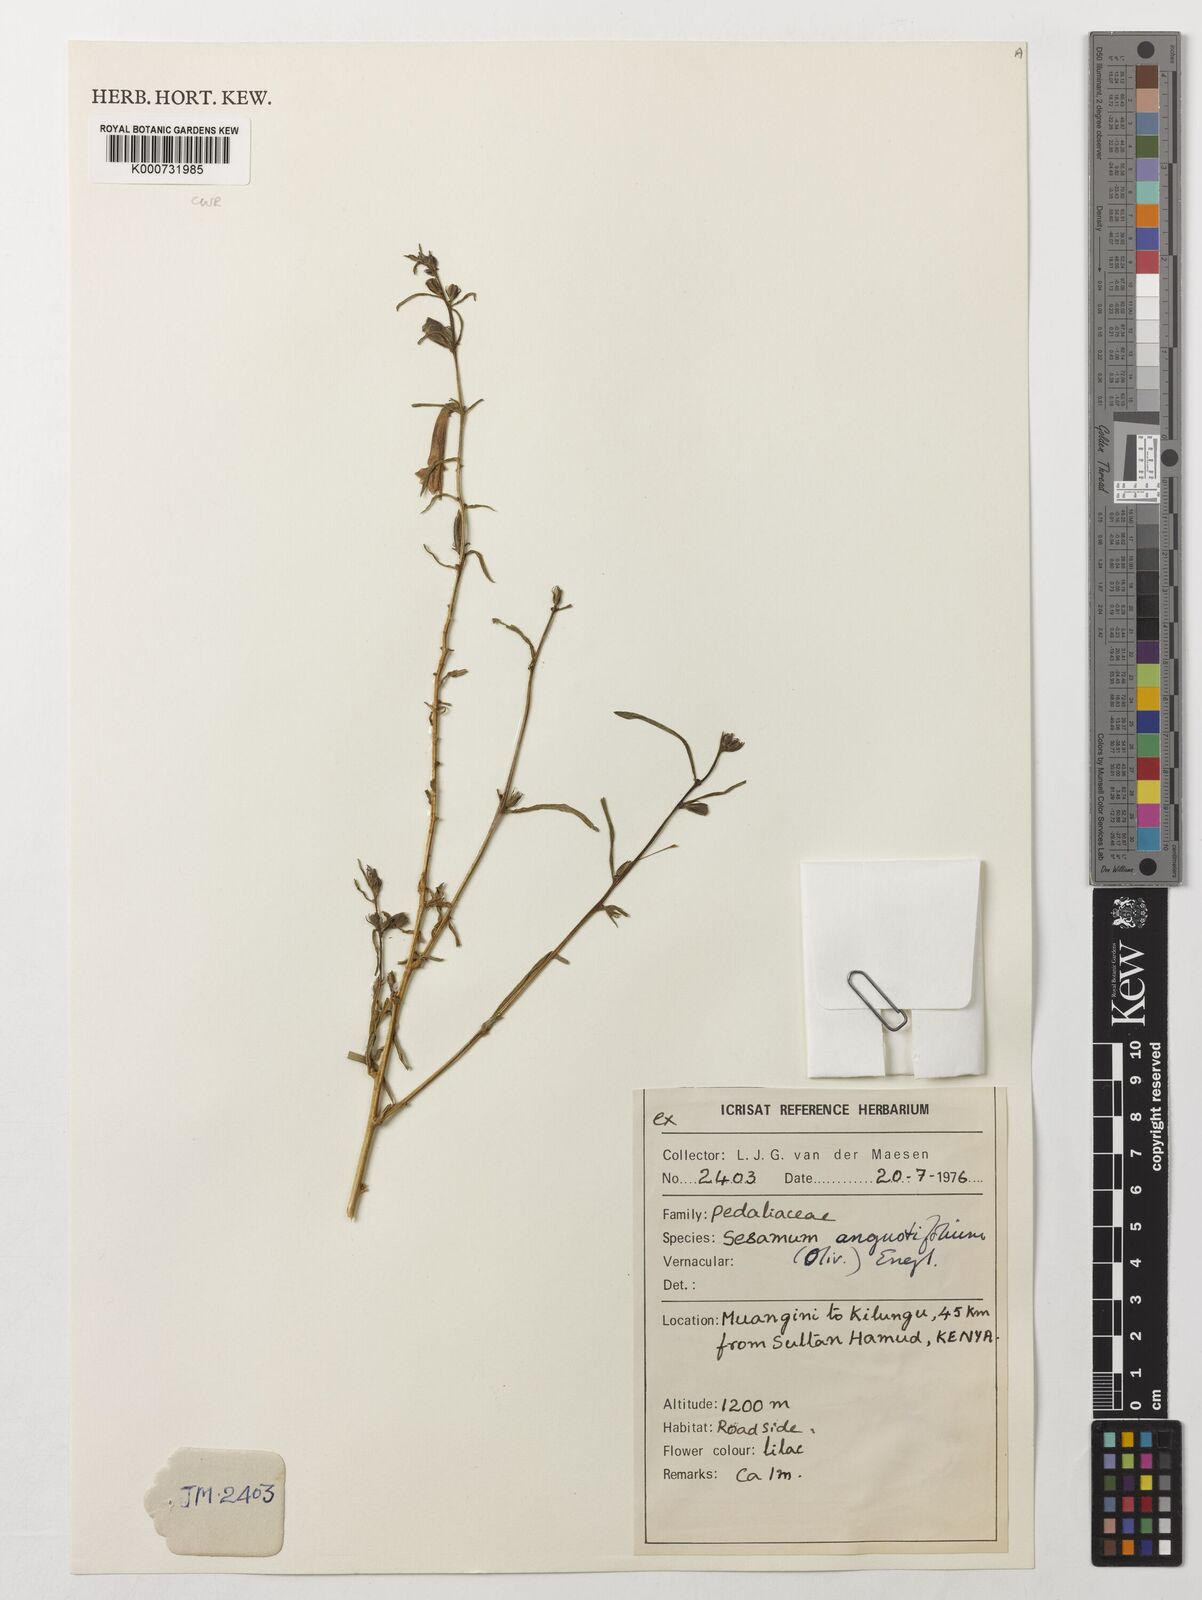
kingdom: Plantae
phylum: Tracheophyta
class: Magnoliopsida
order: Lamiales
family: Pedaliaceae
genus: Sesamum
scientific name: Sesamum angustifolium
